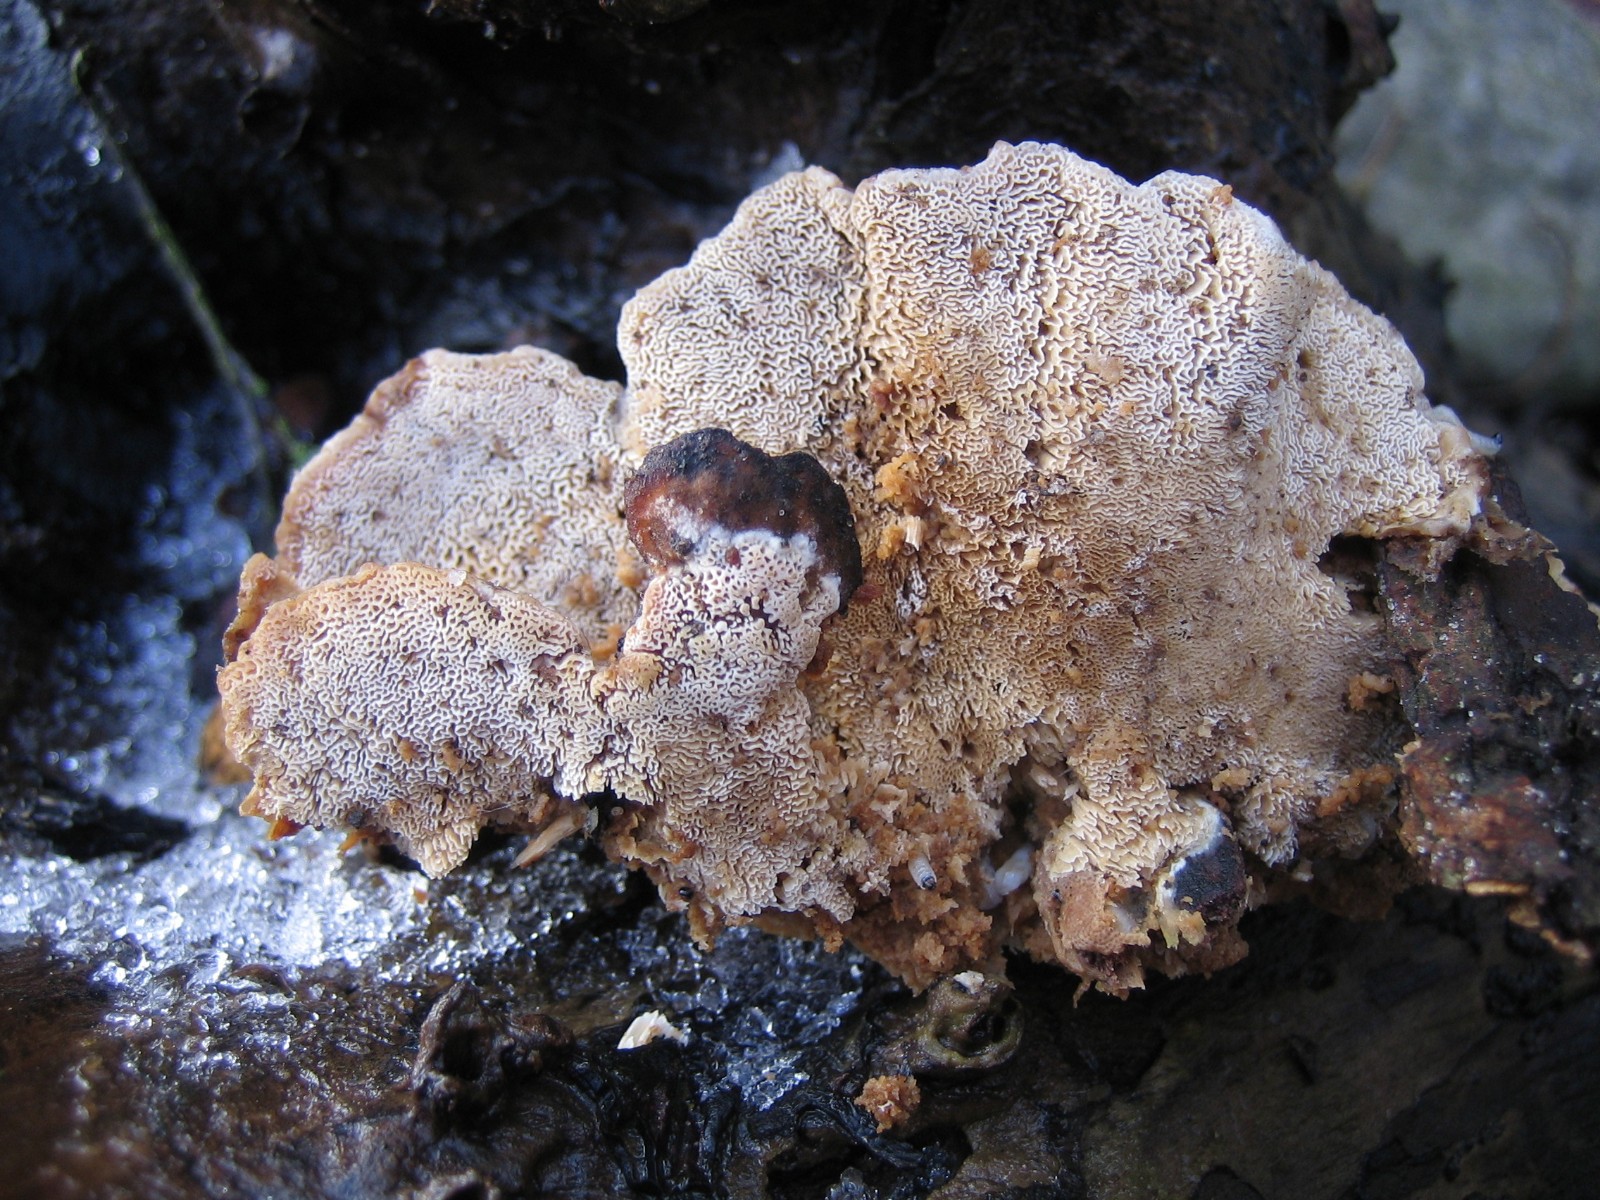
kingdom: Fungi
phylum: Basidiomycota
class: Agaricomycetes
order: Polyporales
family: Phanerochaetaceae
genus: Bjerkandera
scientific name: Bjerkandera fumosa
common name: grågul sodporesvamp
